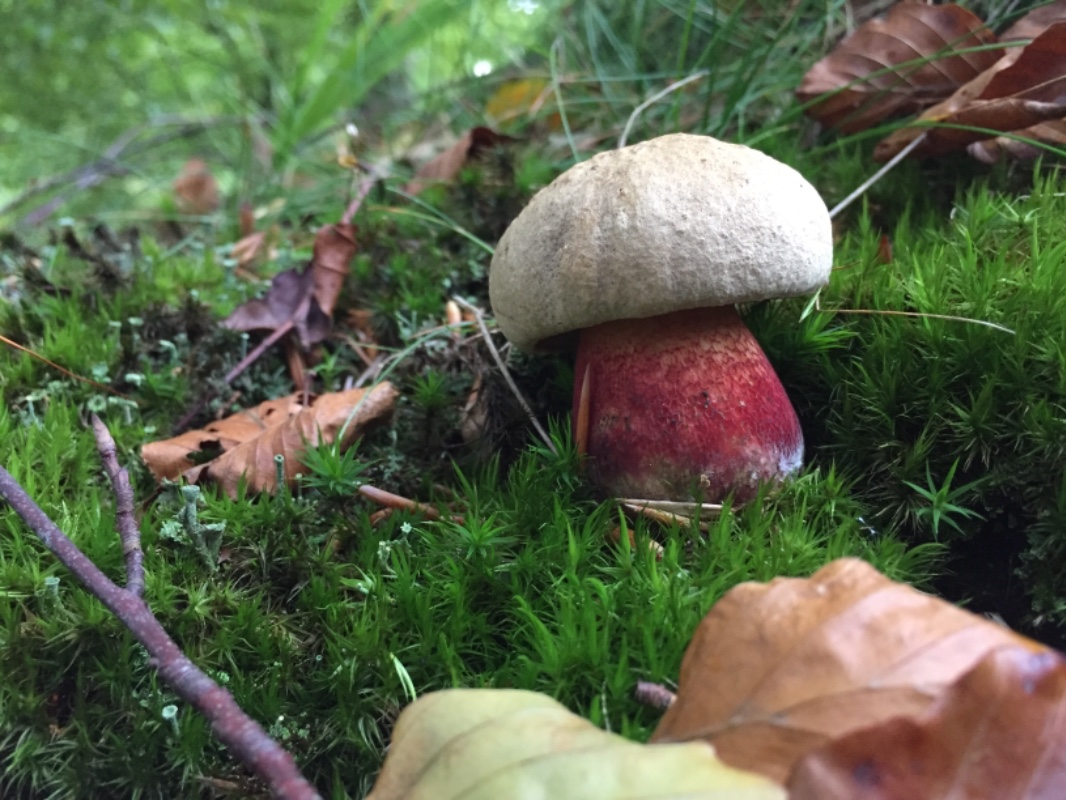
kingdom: Fungi
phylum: Basidiomycota
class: Agaricomycetes
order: Boletales
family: Boletaceae
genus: Caloboletus
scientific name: Caloboletus calopus
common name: skønfodet rørhat
